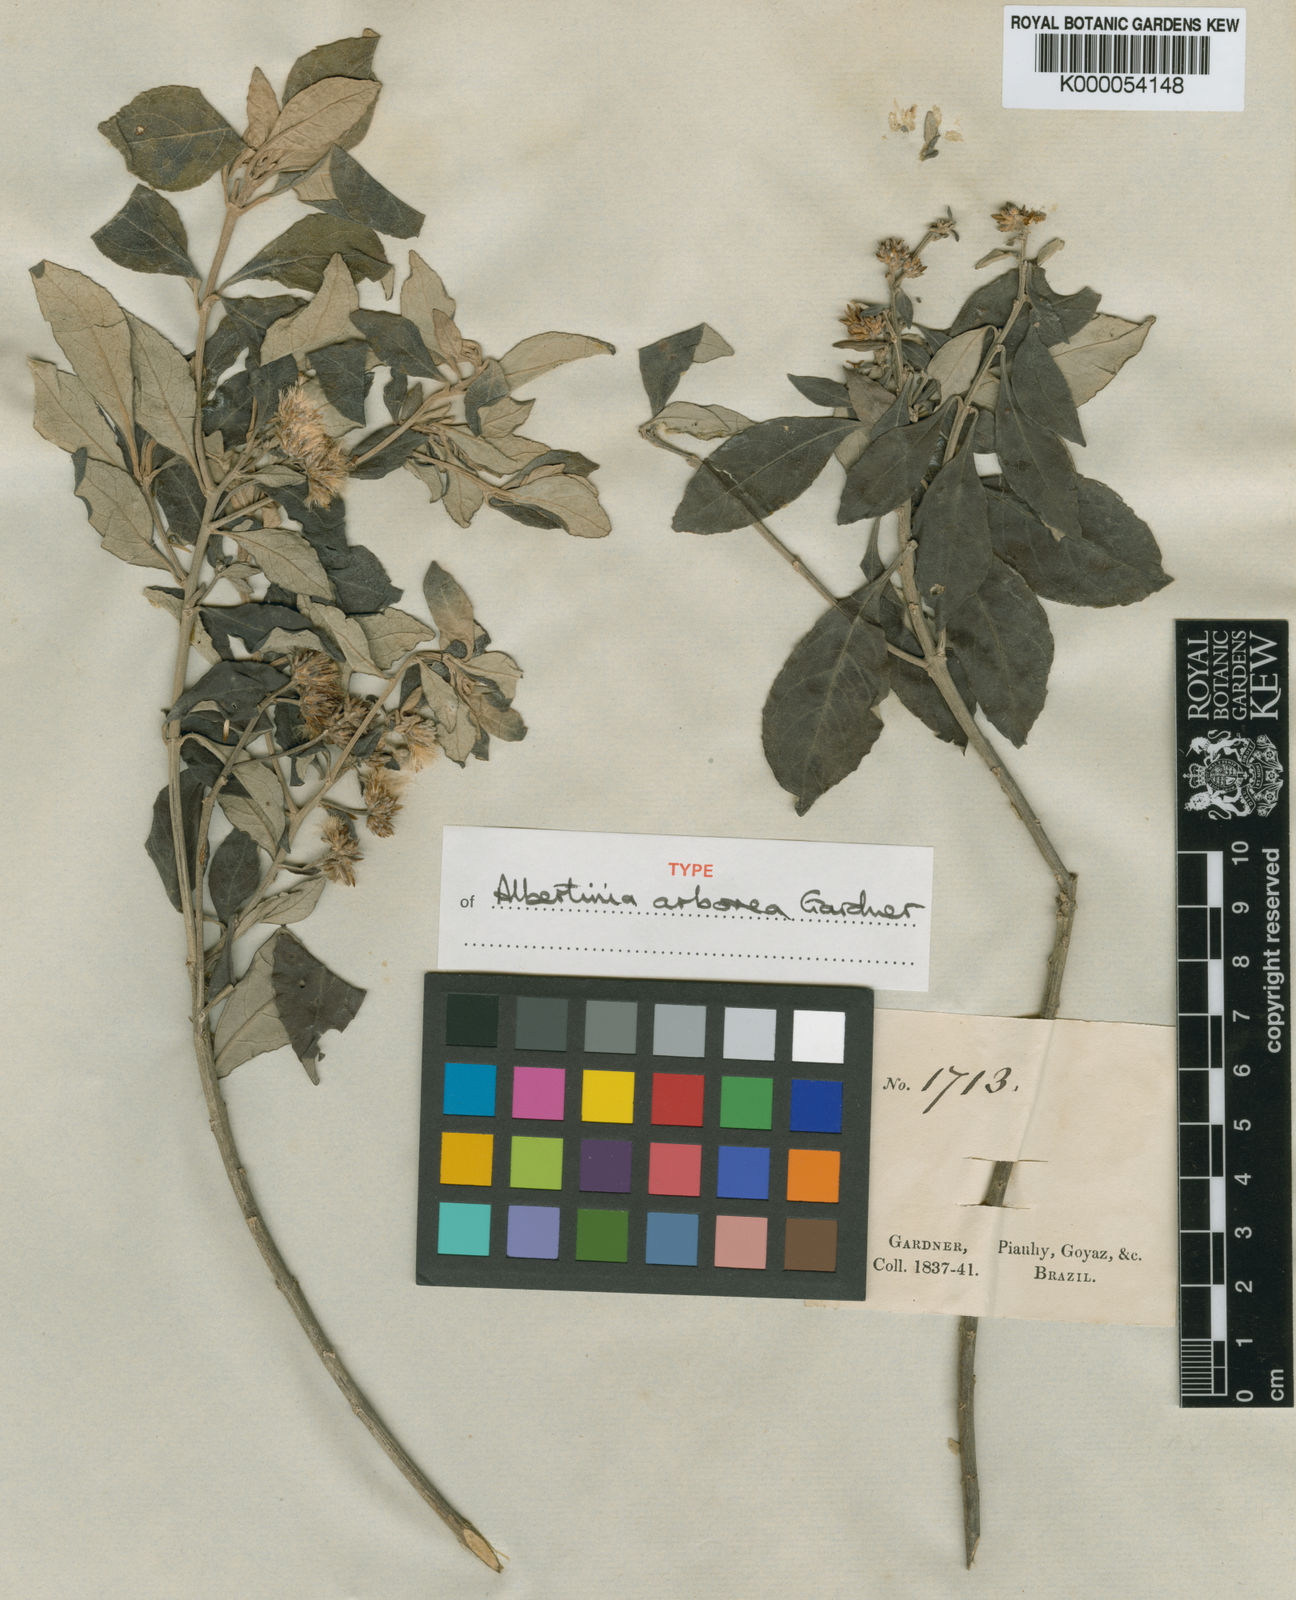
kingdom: Plantae
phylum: Tracheophyta
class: Magnoliopsida
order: Asterales
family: Asteraceae
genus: Eremanthus
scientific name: Eremanthus arboreus
